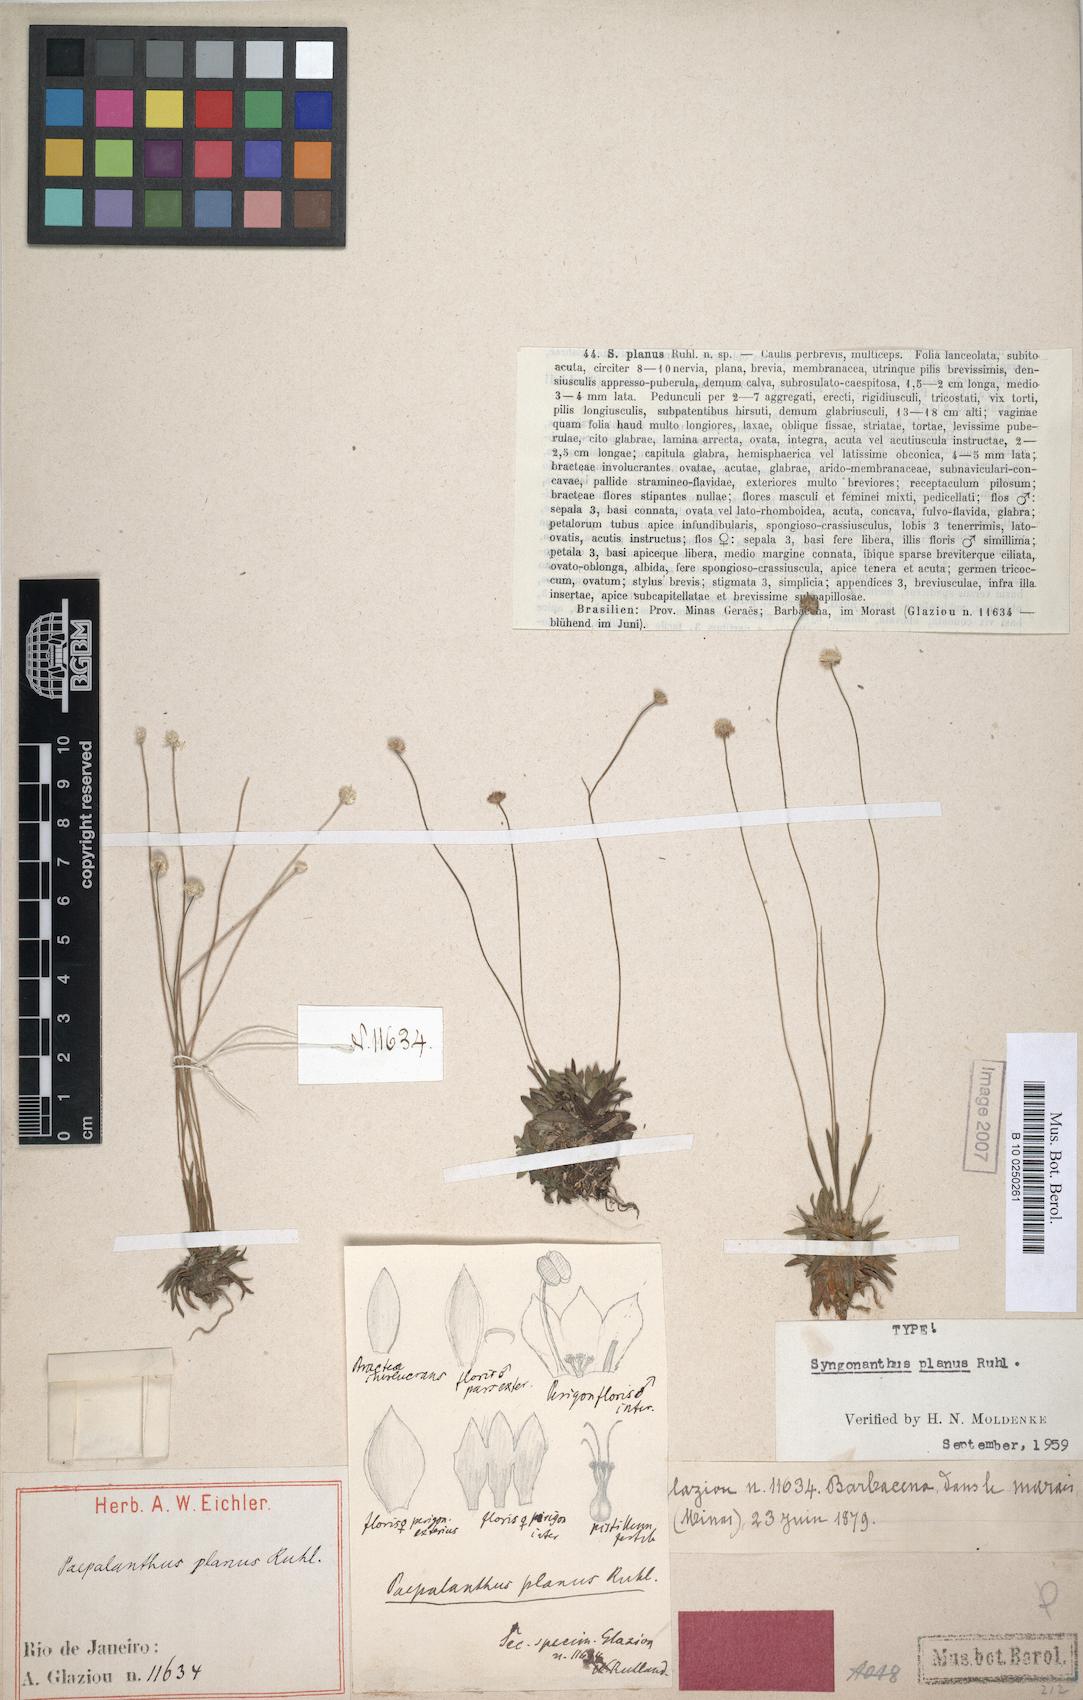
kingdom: Plantae
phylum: Tracheophyta
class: Liliopsida
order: Poales
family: Eriocaulaceae
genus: Syngonanthus
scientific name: Syngonanthus planus
